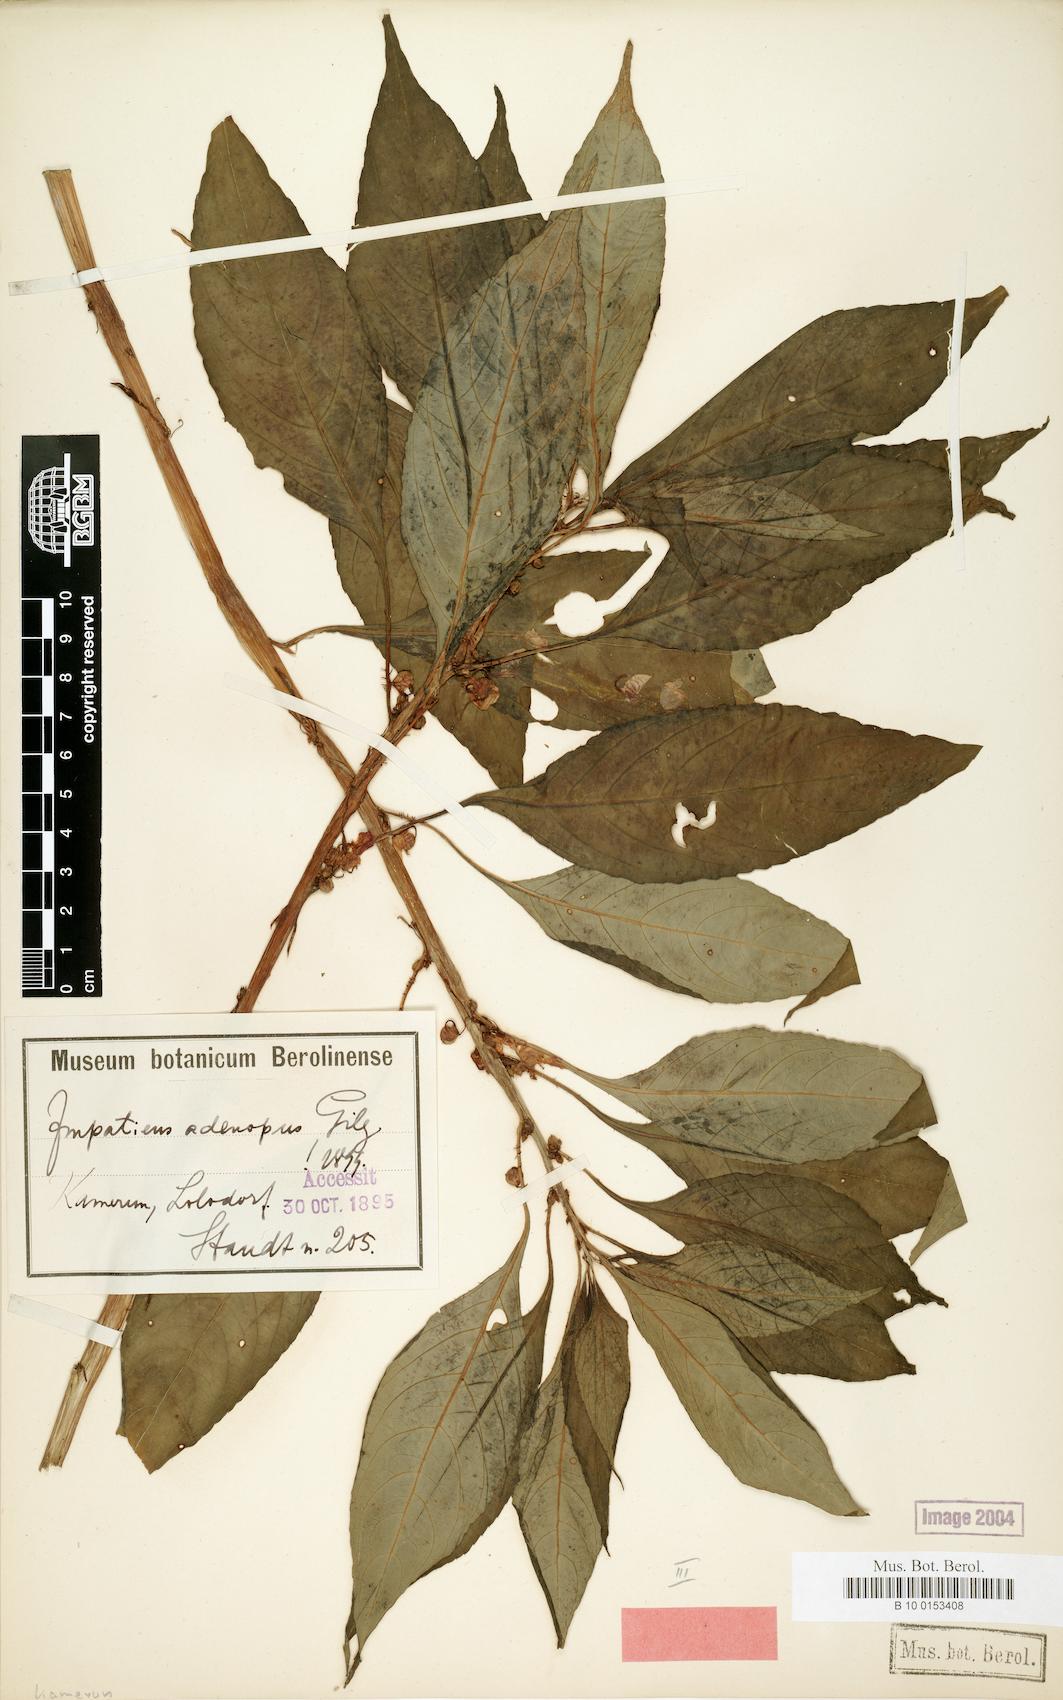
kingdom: Plantae
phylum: Tracheophyta
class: Magnoliopsida
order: Ericales
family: Balsaminaceae
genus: Impatiens
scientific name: Impatiens mannii
